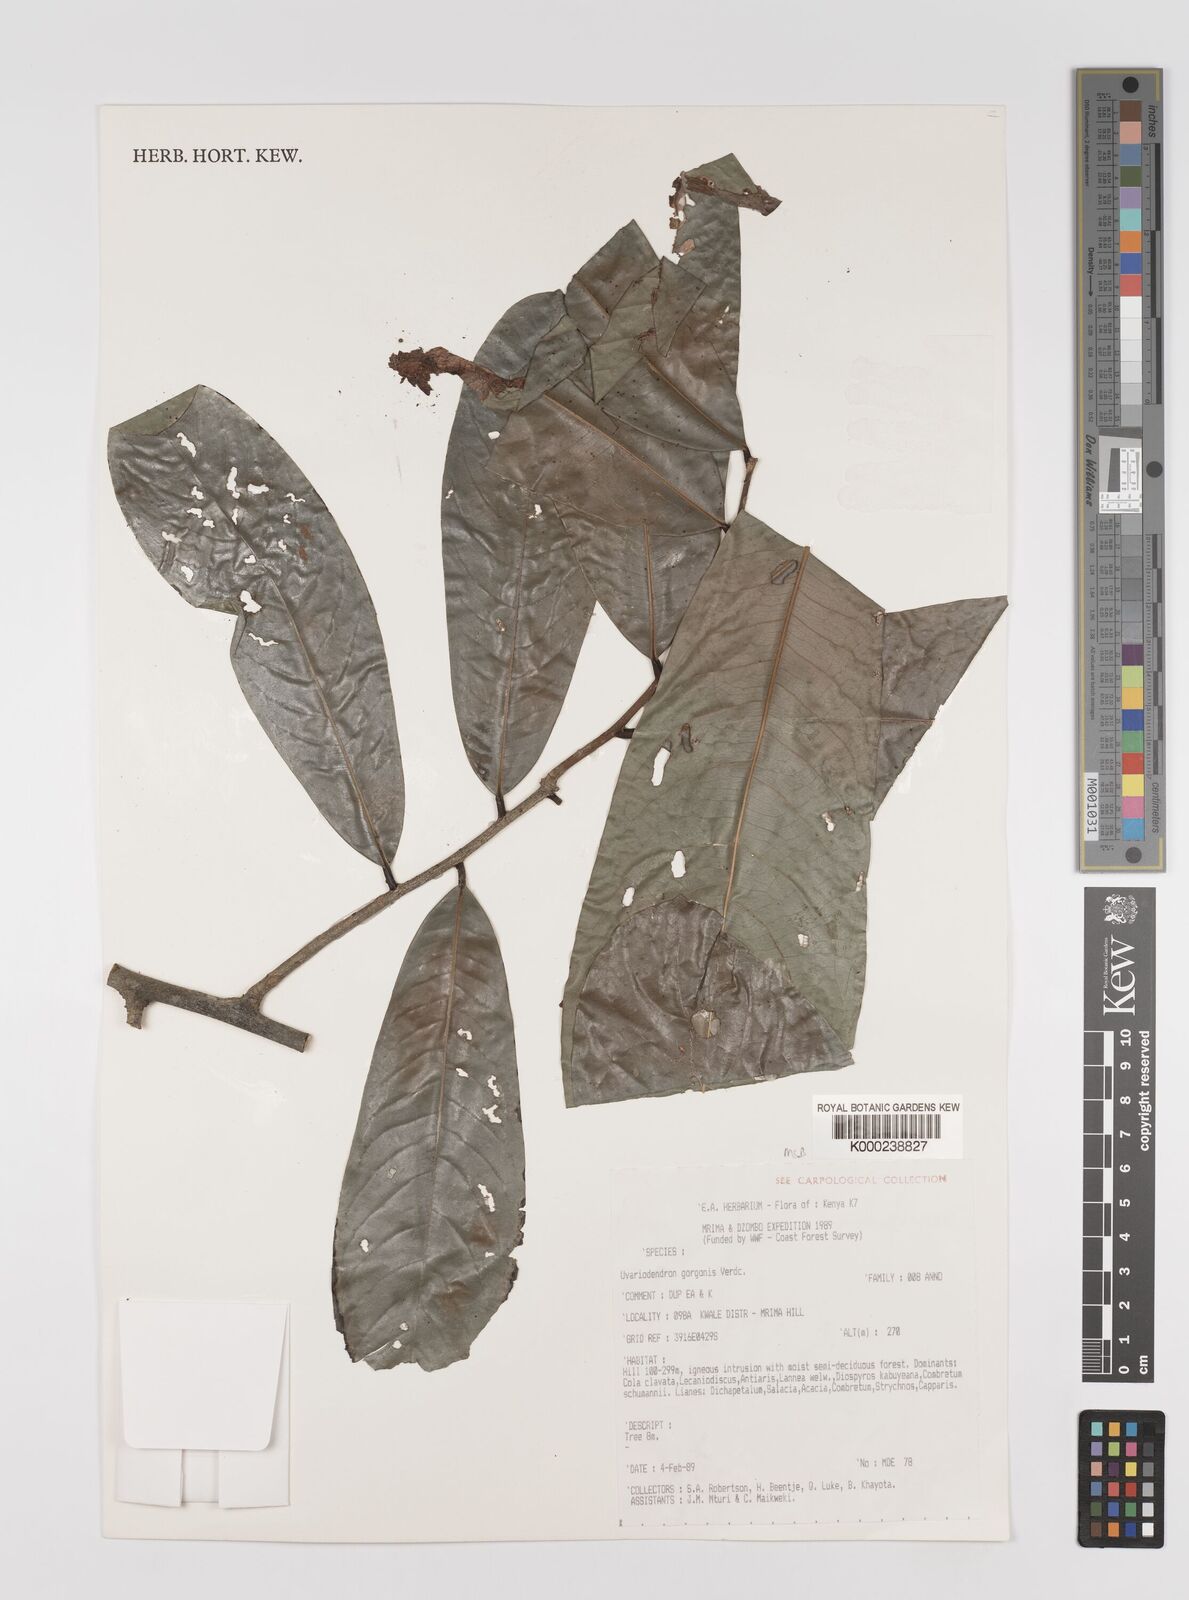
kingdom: Plantae
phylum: Tracheophyta
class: Magnoliopsida
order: Magnoliales
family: Annonaceae
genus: Uvariodendron
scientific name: Uvariodendron gorgonis
